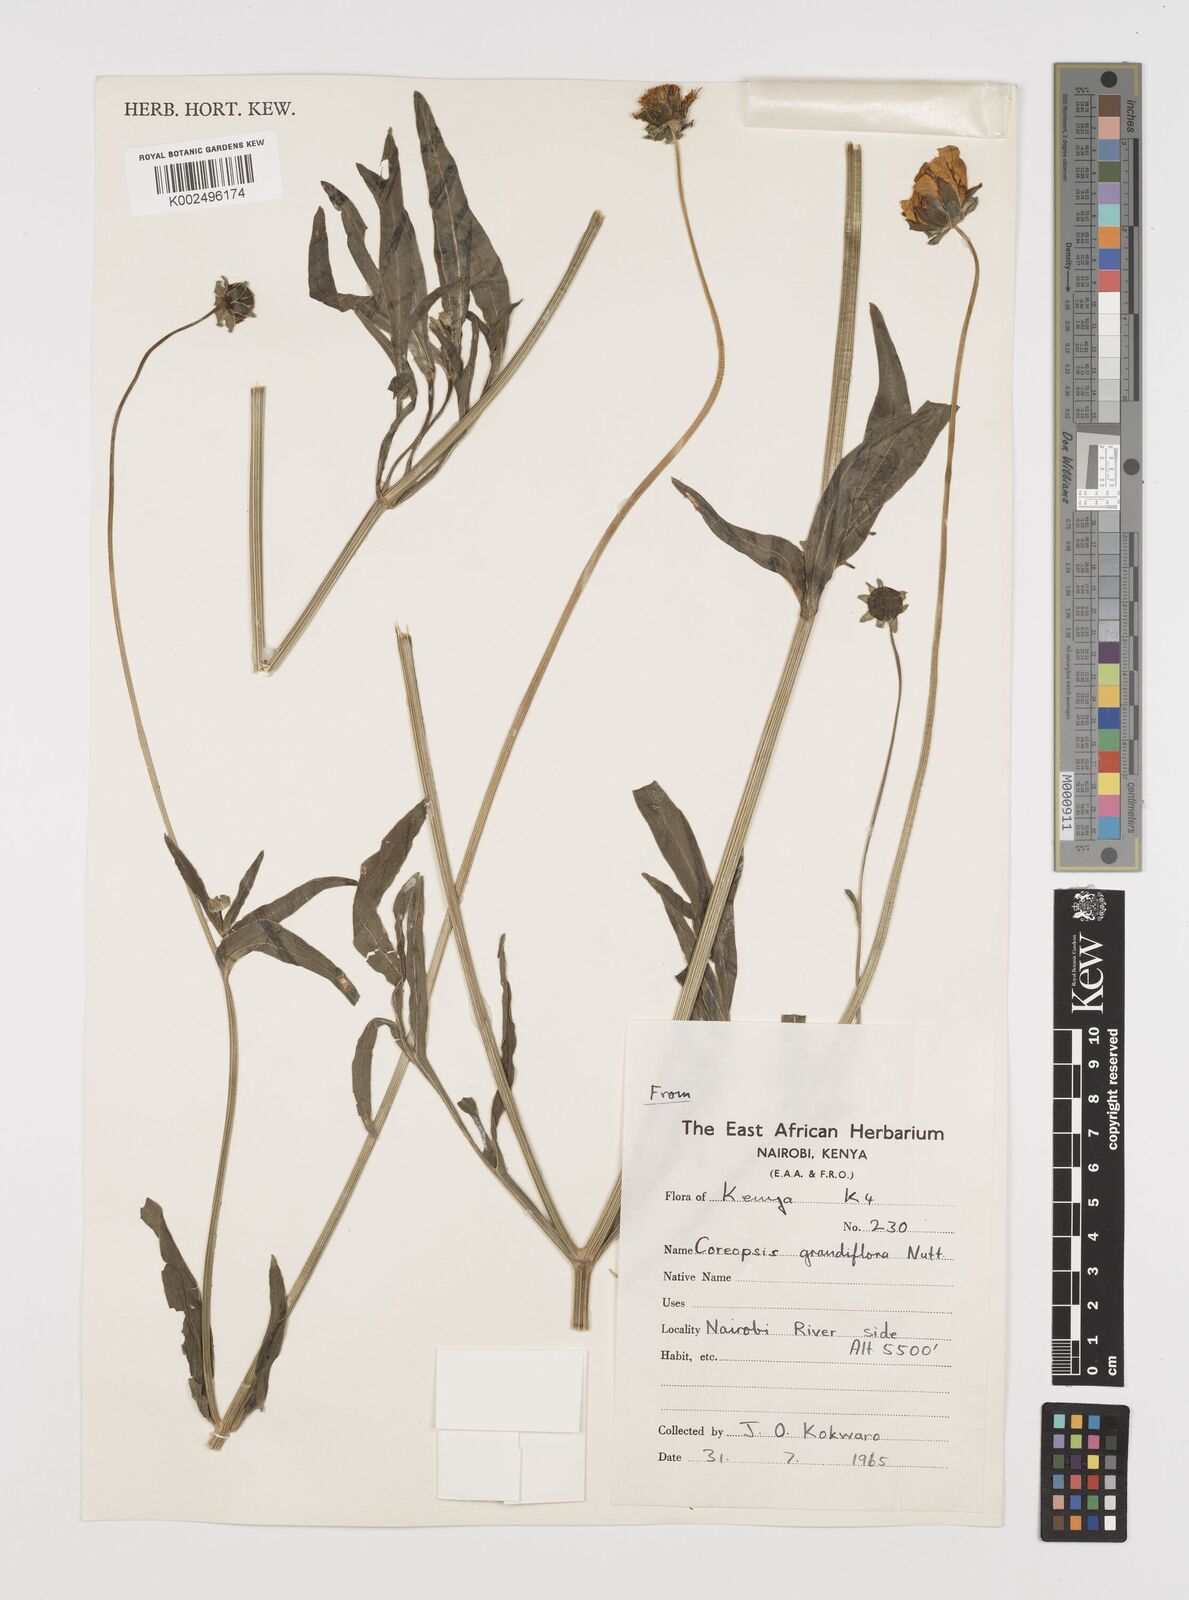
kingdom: Plantae
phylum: Tracheophyta
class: Magnoliopsida
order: Asterales
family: Asteraceae
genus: Coreopsis
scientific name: Coreopsis grandiflora
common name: Large-flowered tickseed
